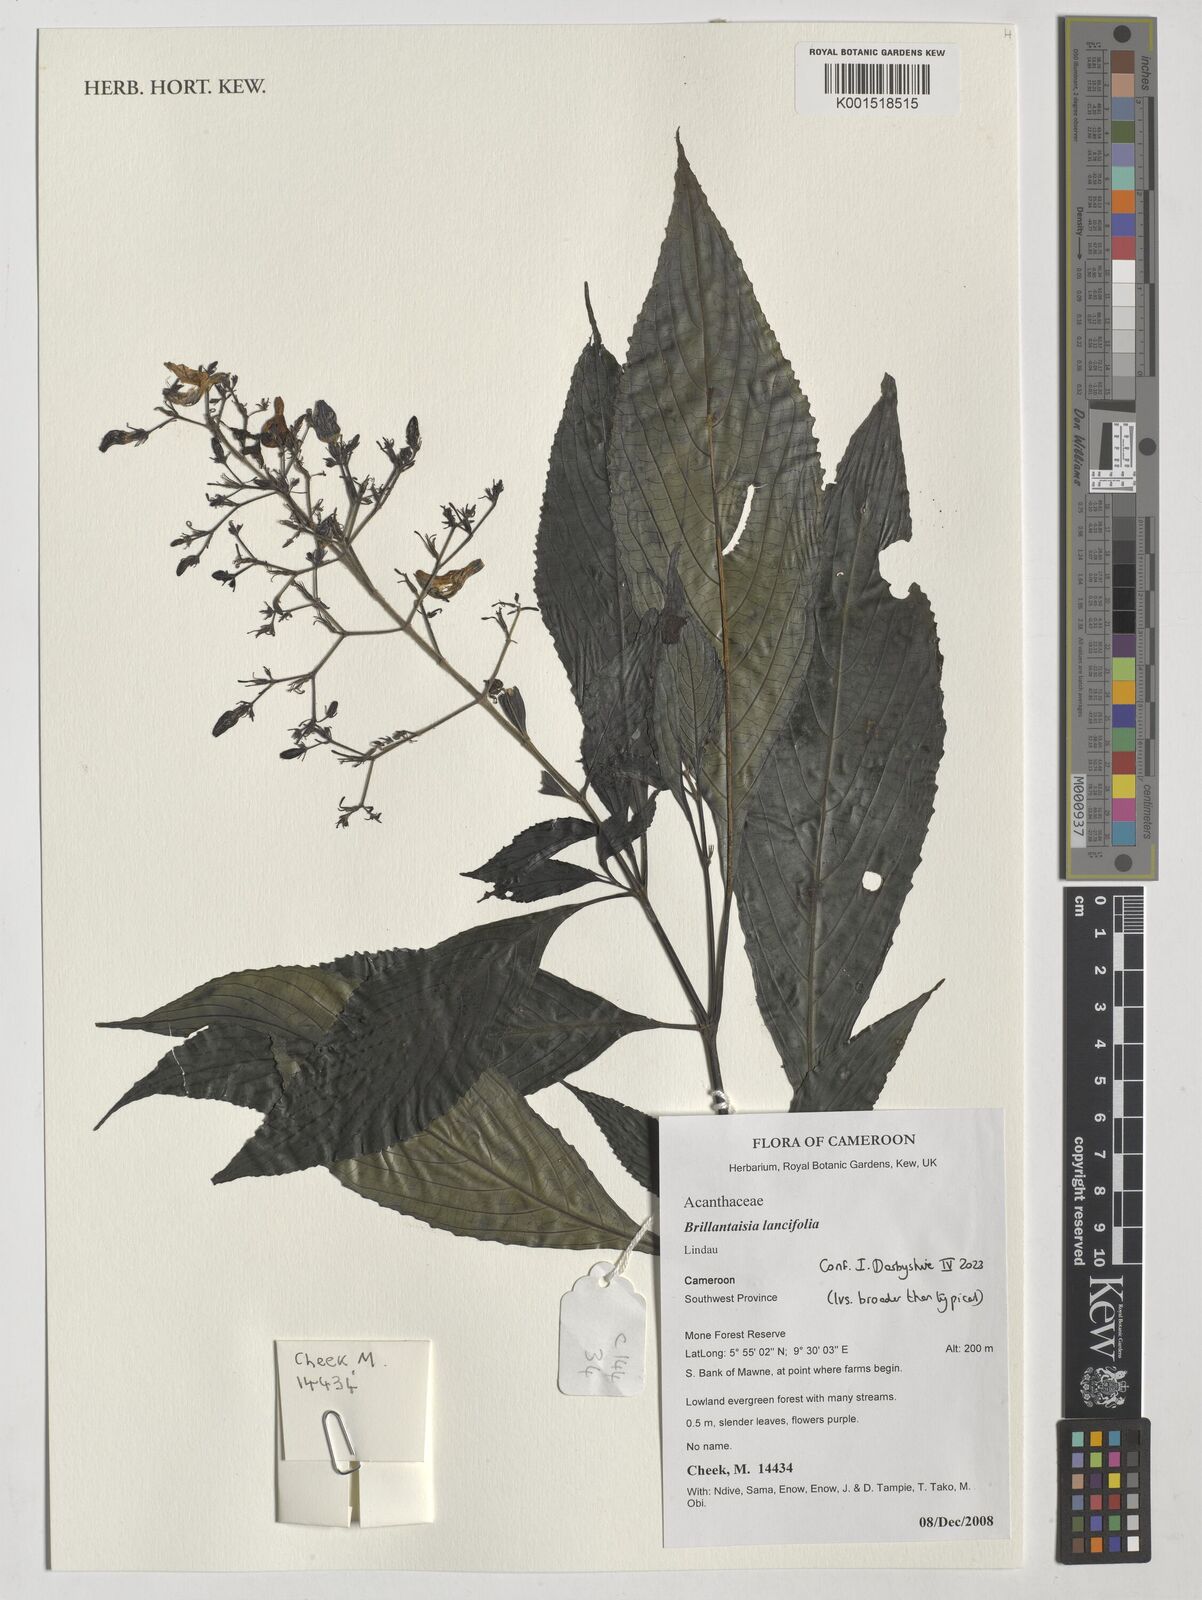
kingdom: Plantae
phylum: Tracheophyta
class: Magnoliopsida
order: Lamiales
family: Acanthaceae
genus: Brillantaisia
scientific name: Brillantaisia lancifolia
